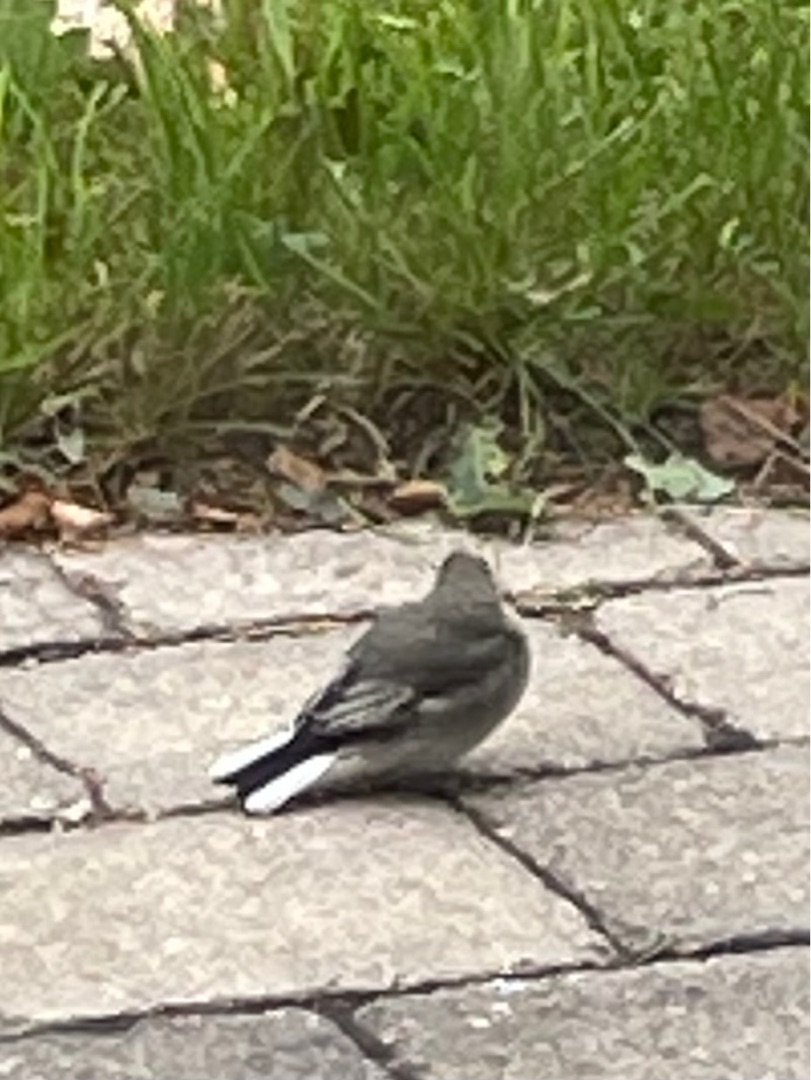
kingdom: Animalia
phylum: Chordata
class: Aves
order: Passeriformes
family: Motacillidae
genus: Motacilla
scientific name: Motacilla alba
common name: Hvid vipstjert
